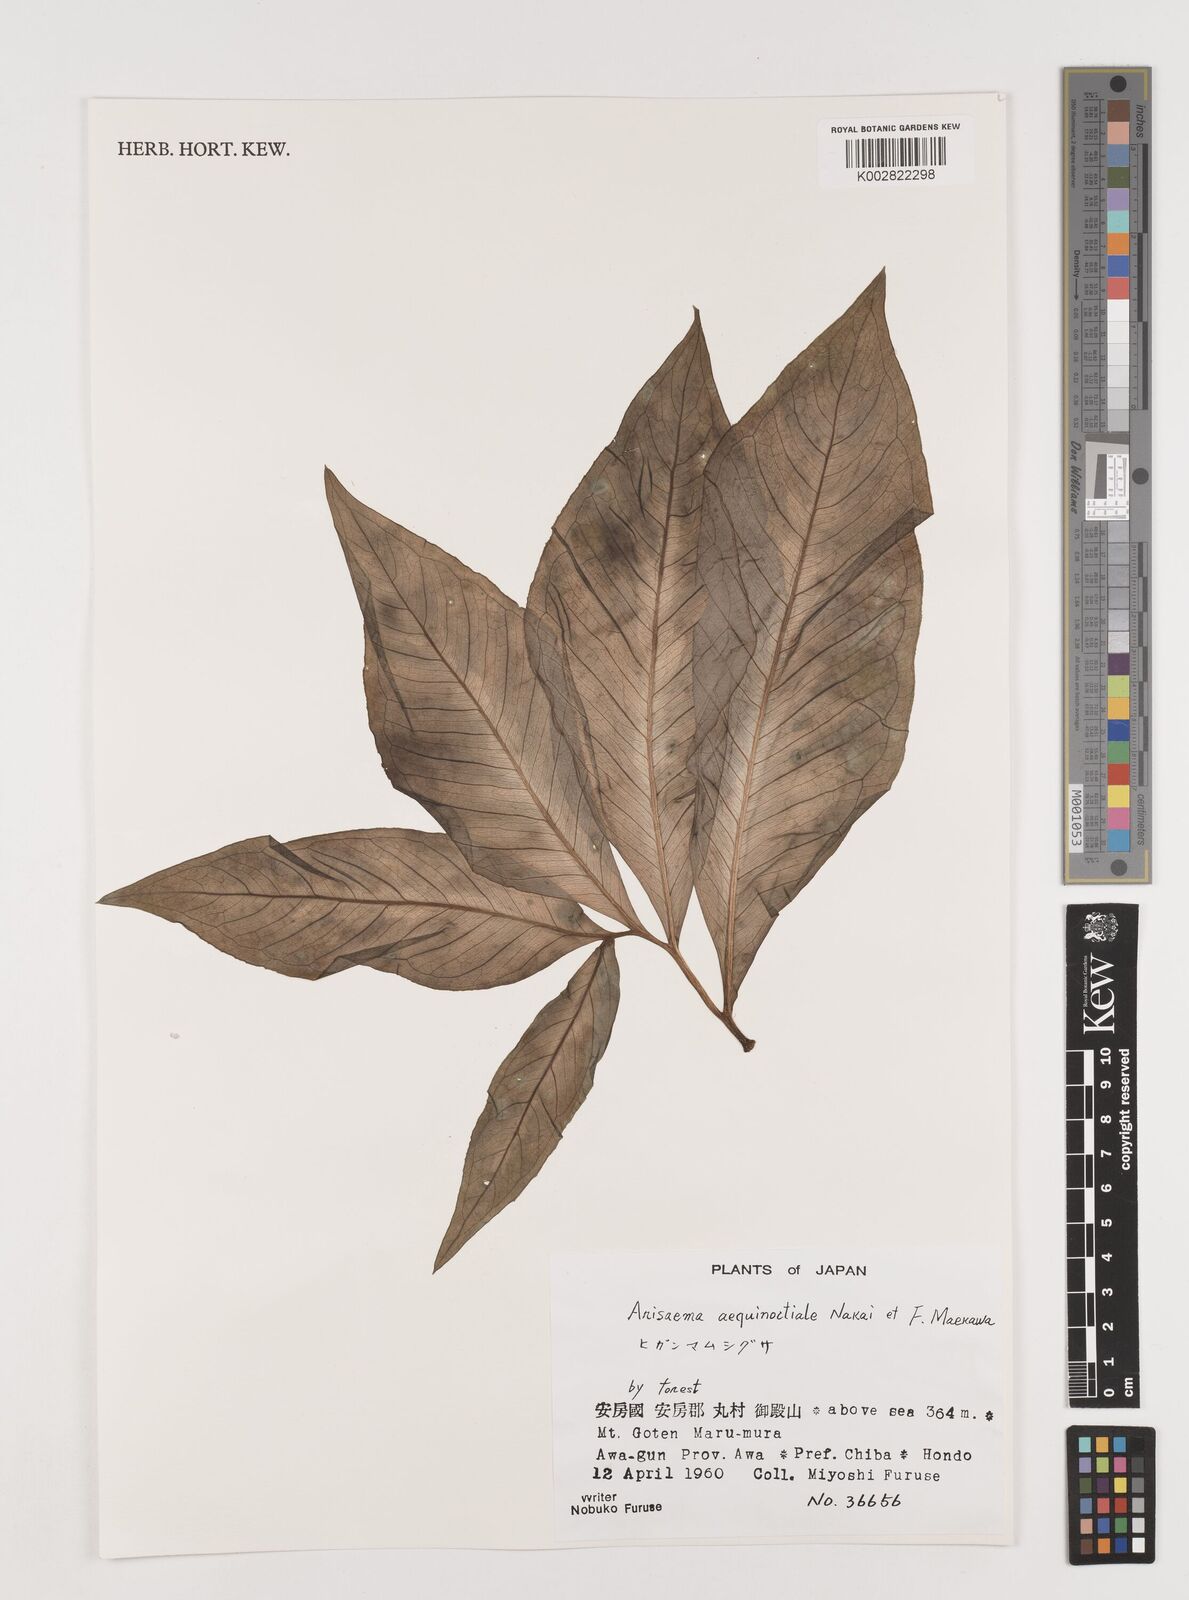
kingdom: Plantae
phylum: Tracheophyta
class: Liliopsida
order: Alismatales
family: Araceae
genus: Arisaema
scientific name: Arisaema aequinoctiale
